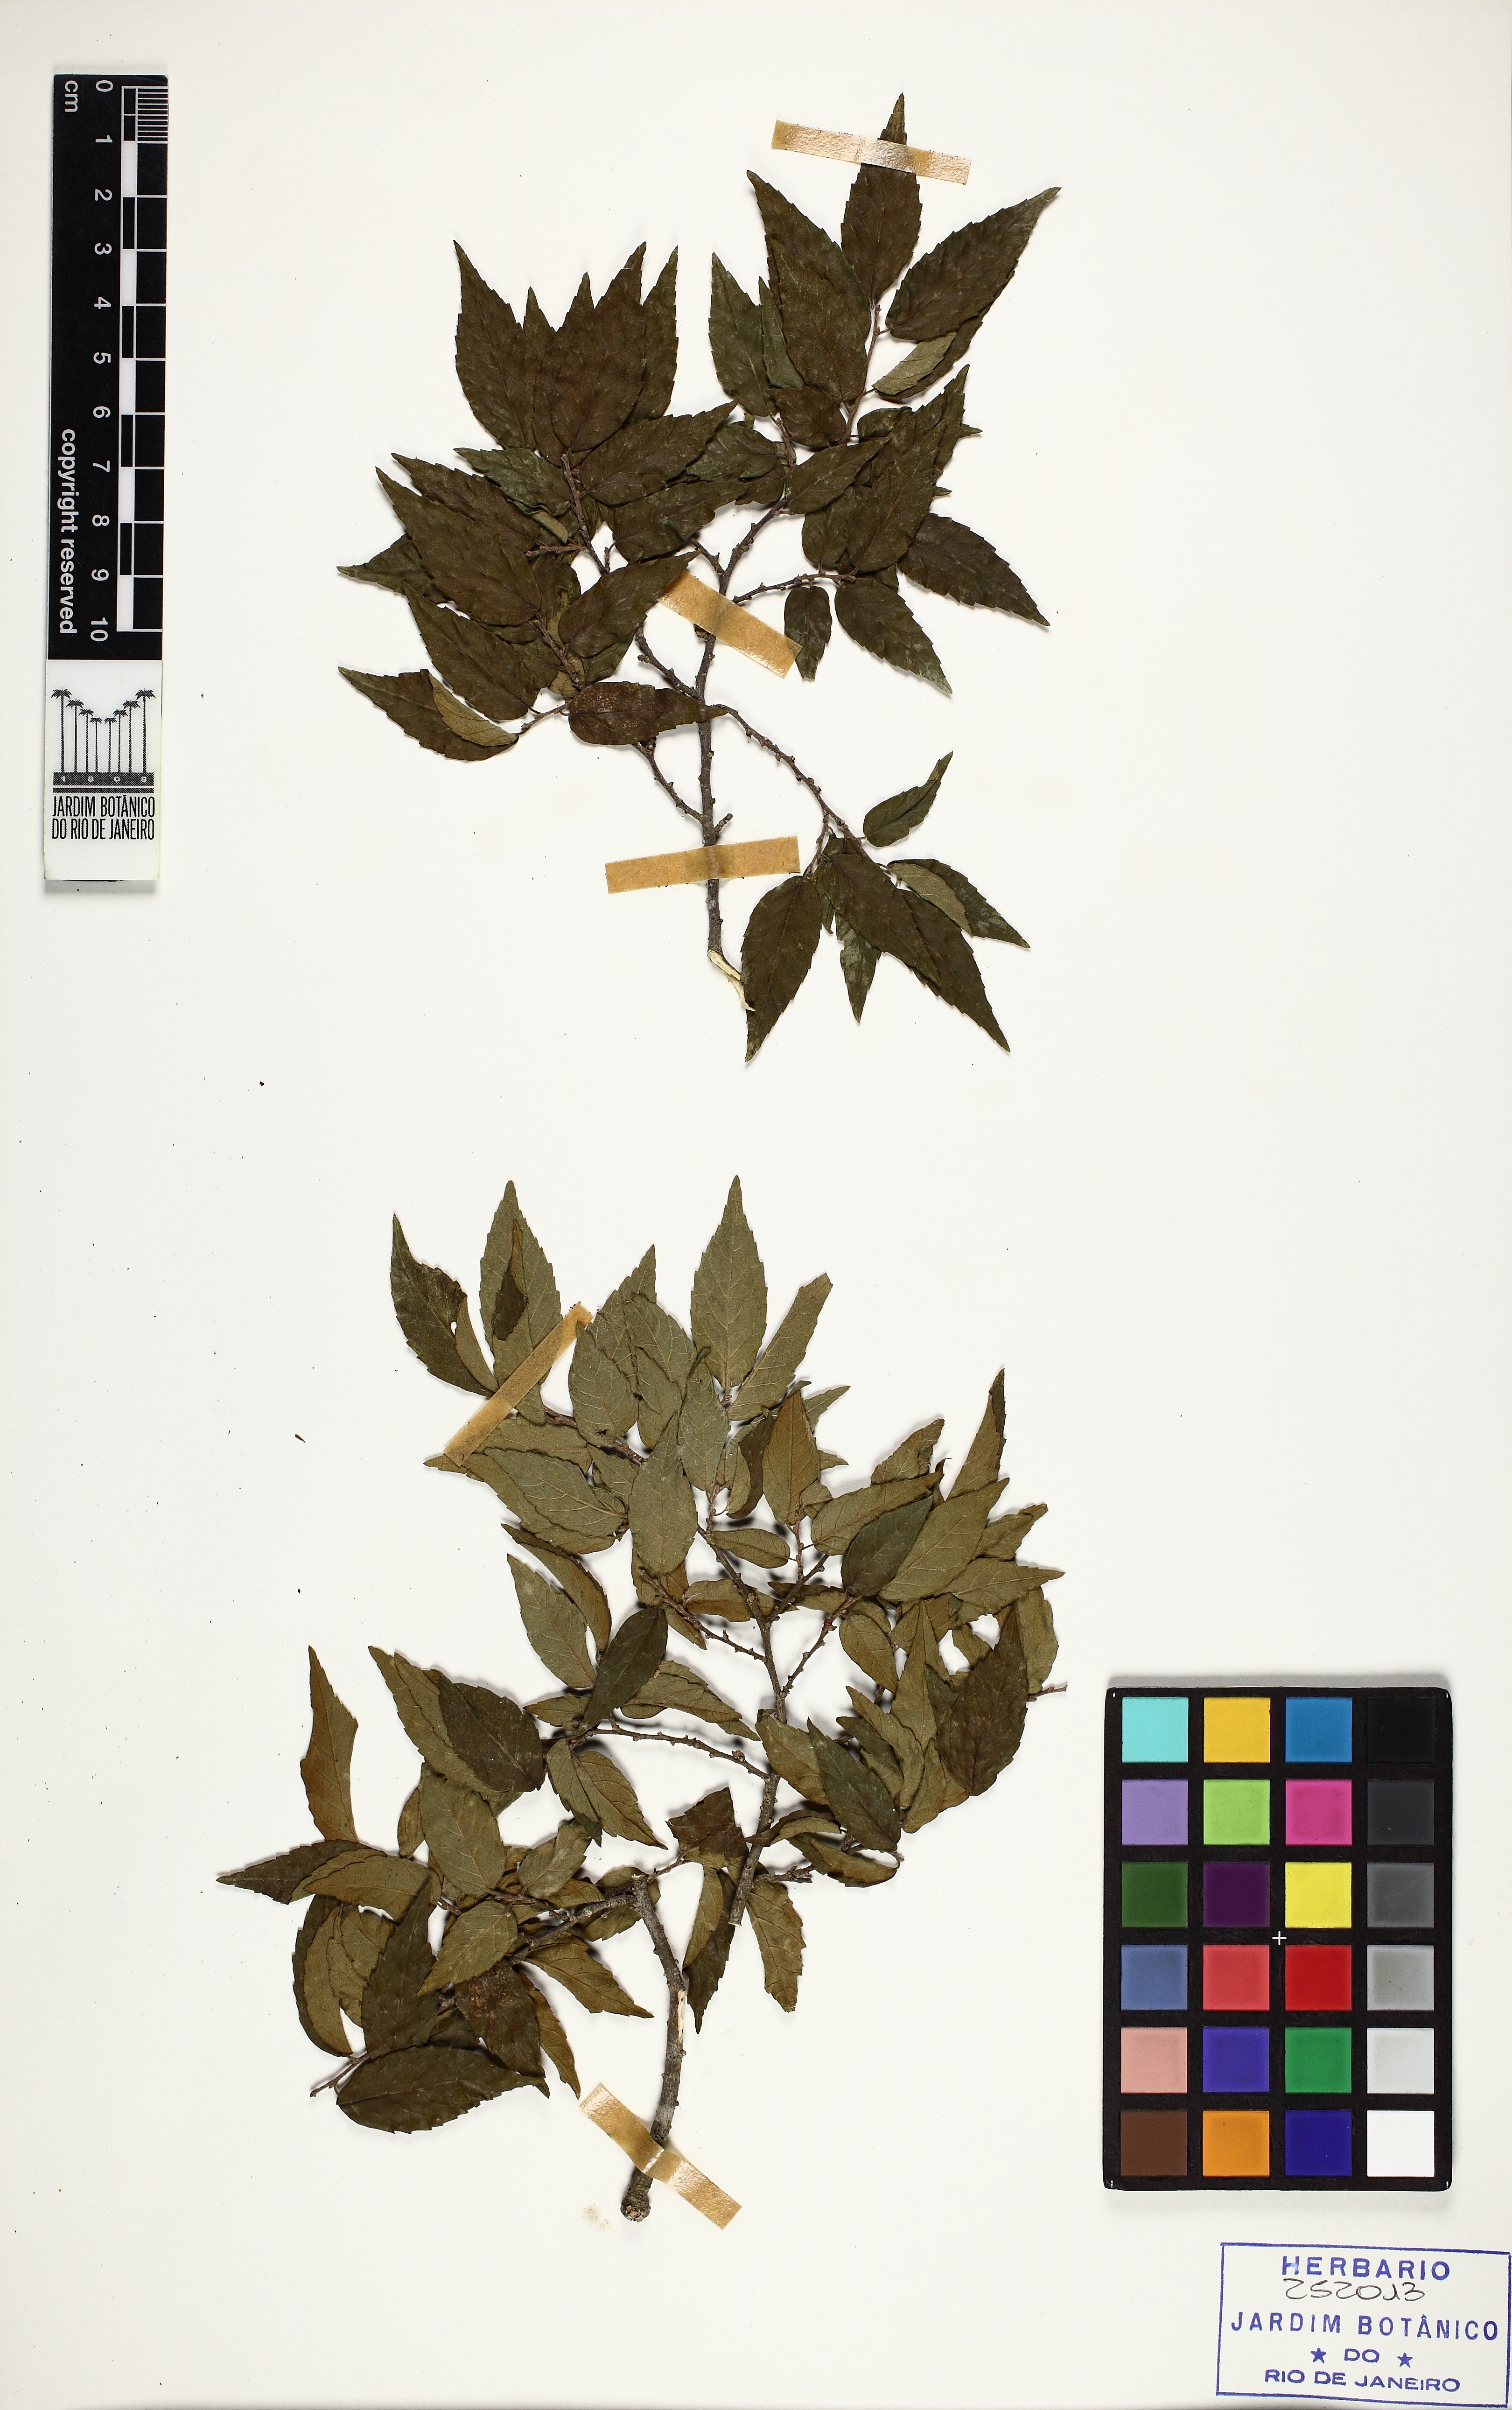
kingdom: Plantae
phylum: Tracheophyta
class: Magnoliopsida
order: Rosales
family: Ulmaceae
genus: Phyllostylon
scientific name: Phyllostylon brasiliensis
